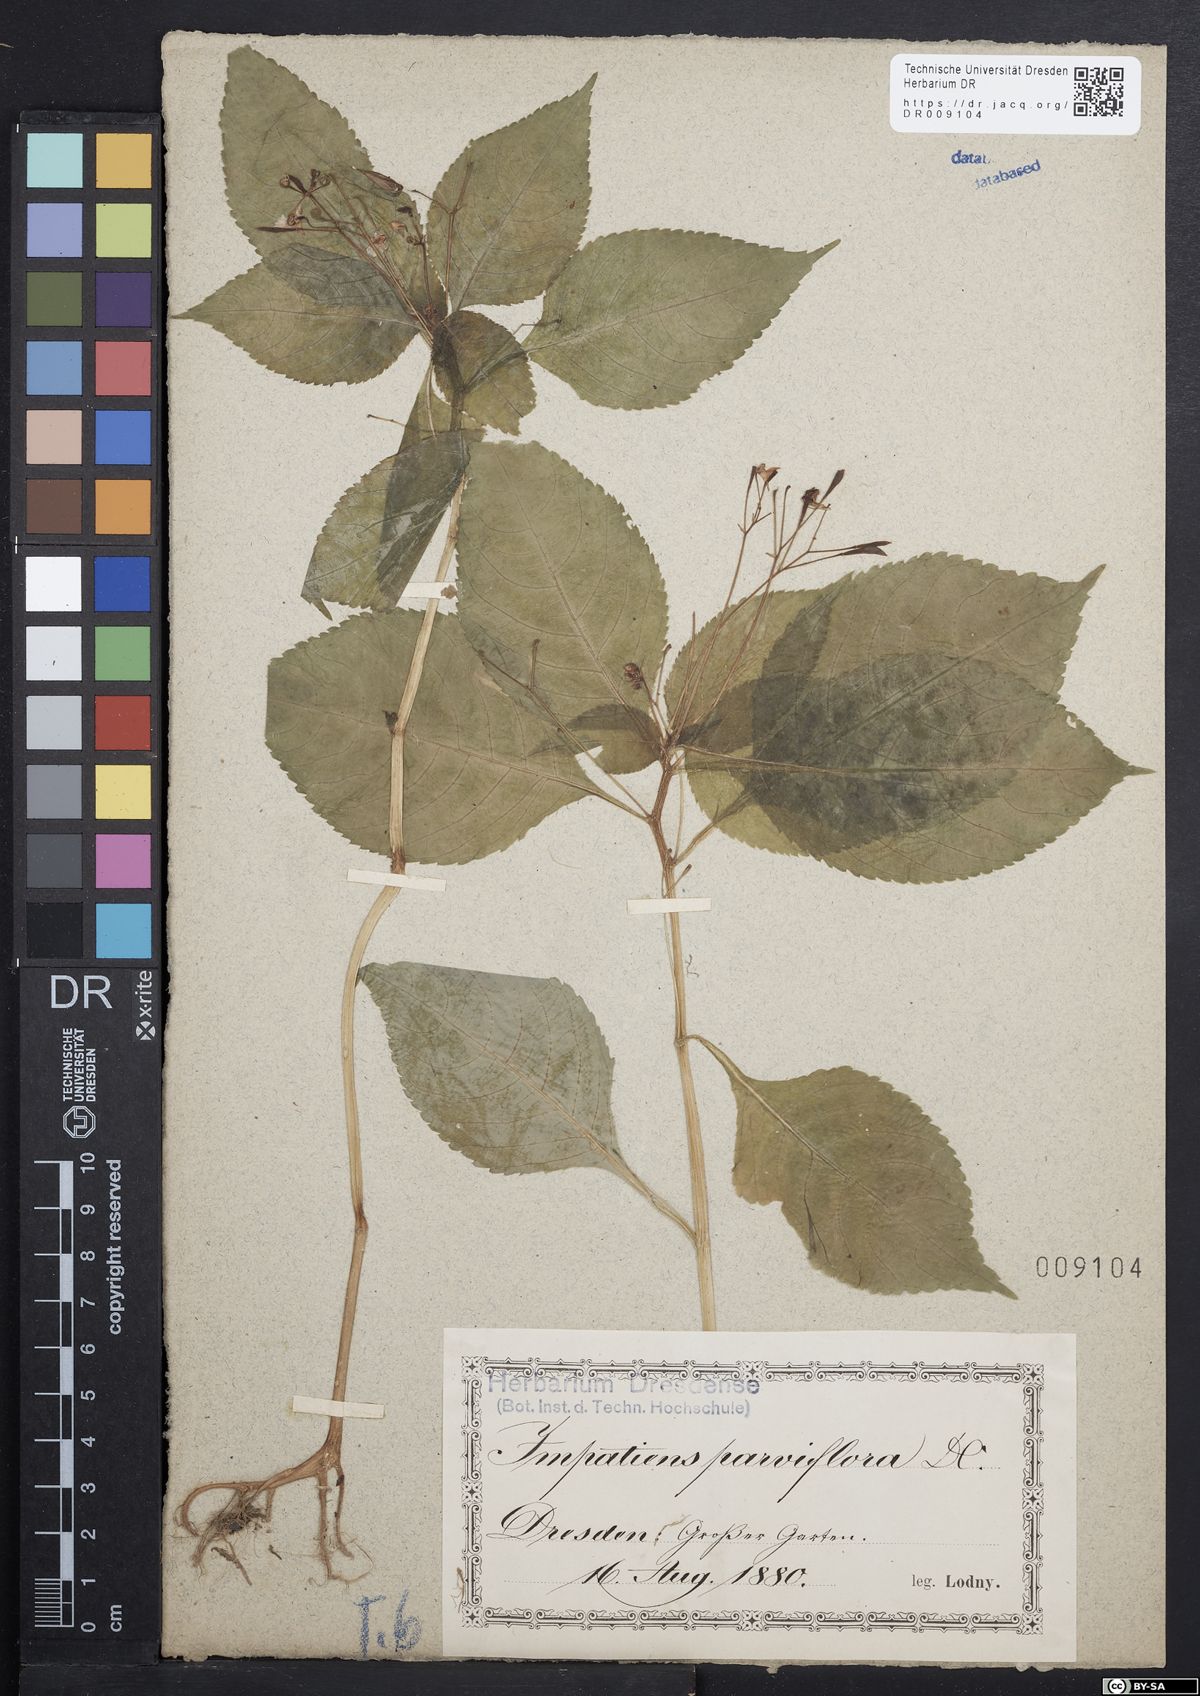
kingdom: Plantae
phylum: Tracheophyta
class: Magnoliopsida
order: Ericales
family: Balsaminaceae
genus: Impatiens
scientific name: Impatiens parviflora
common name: Small balsam
